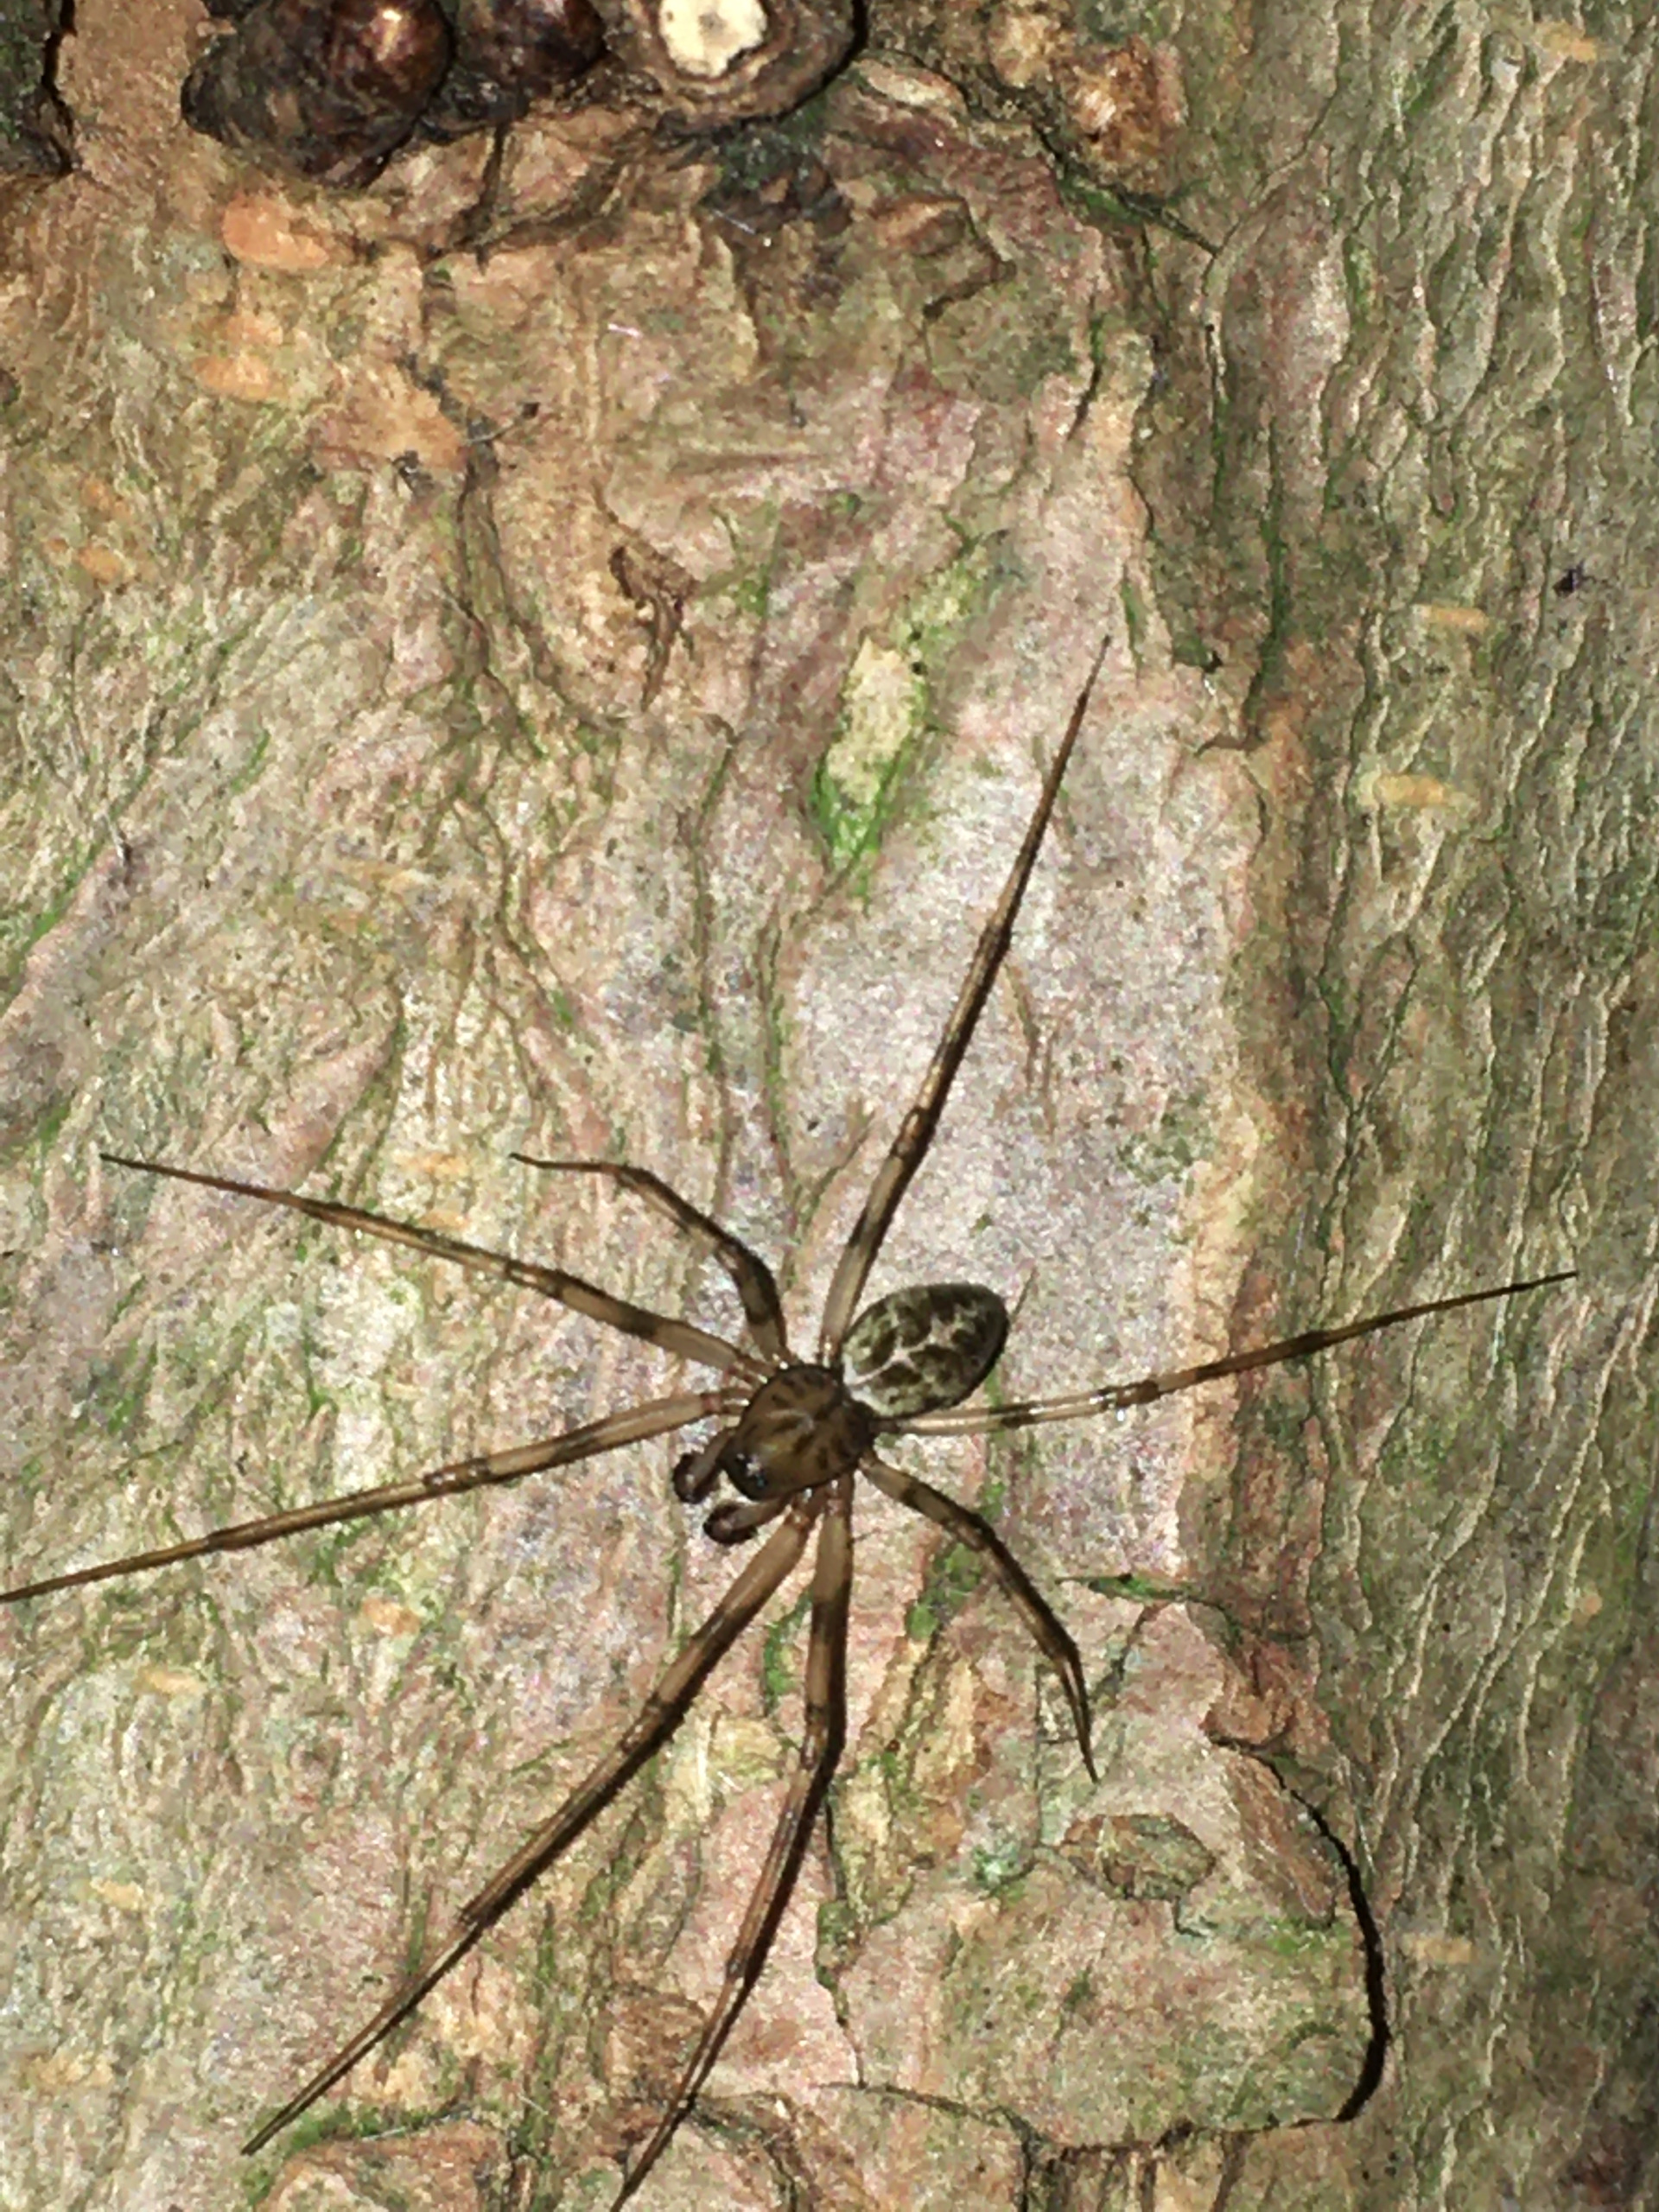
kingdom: Animalia
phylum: Arthropoda
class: Arachnida
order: Araneae
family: Linyphiidae
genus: Drapetisca
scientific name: Drapetisca socialis
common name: Barkjæger
